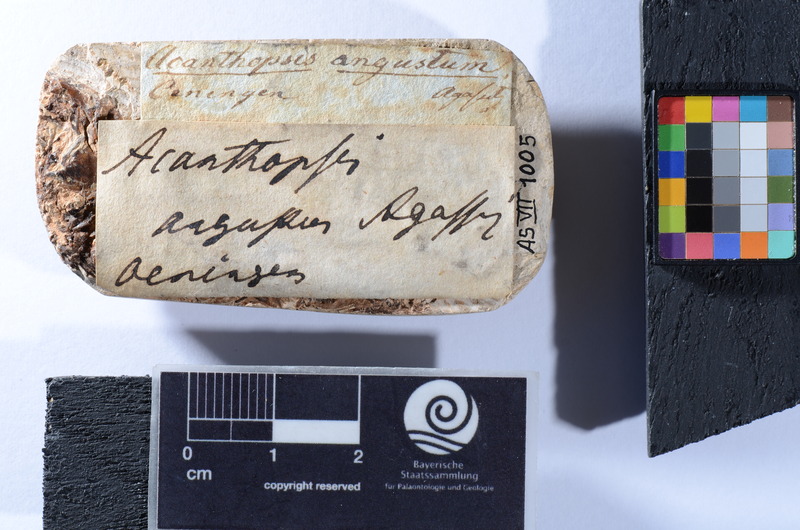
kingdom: Animalia
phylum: Chordata
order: Cypriniformes
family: Cobitidae
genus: Cobitis
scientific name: Cobitis
